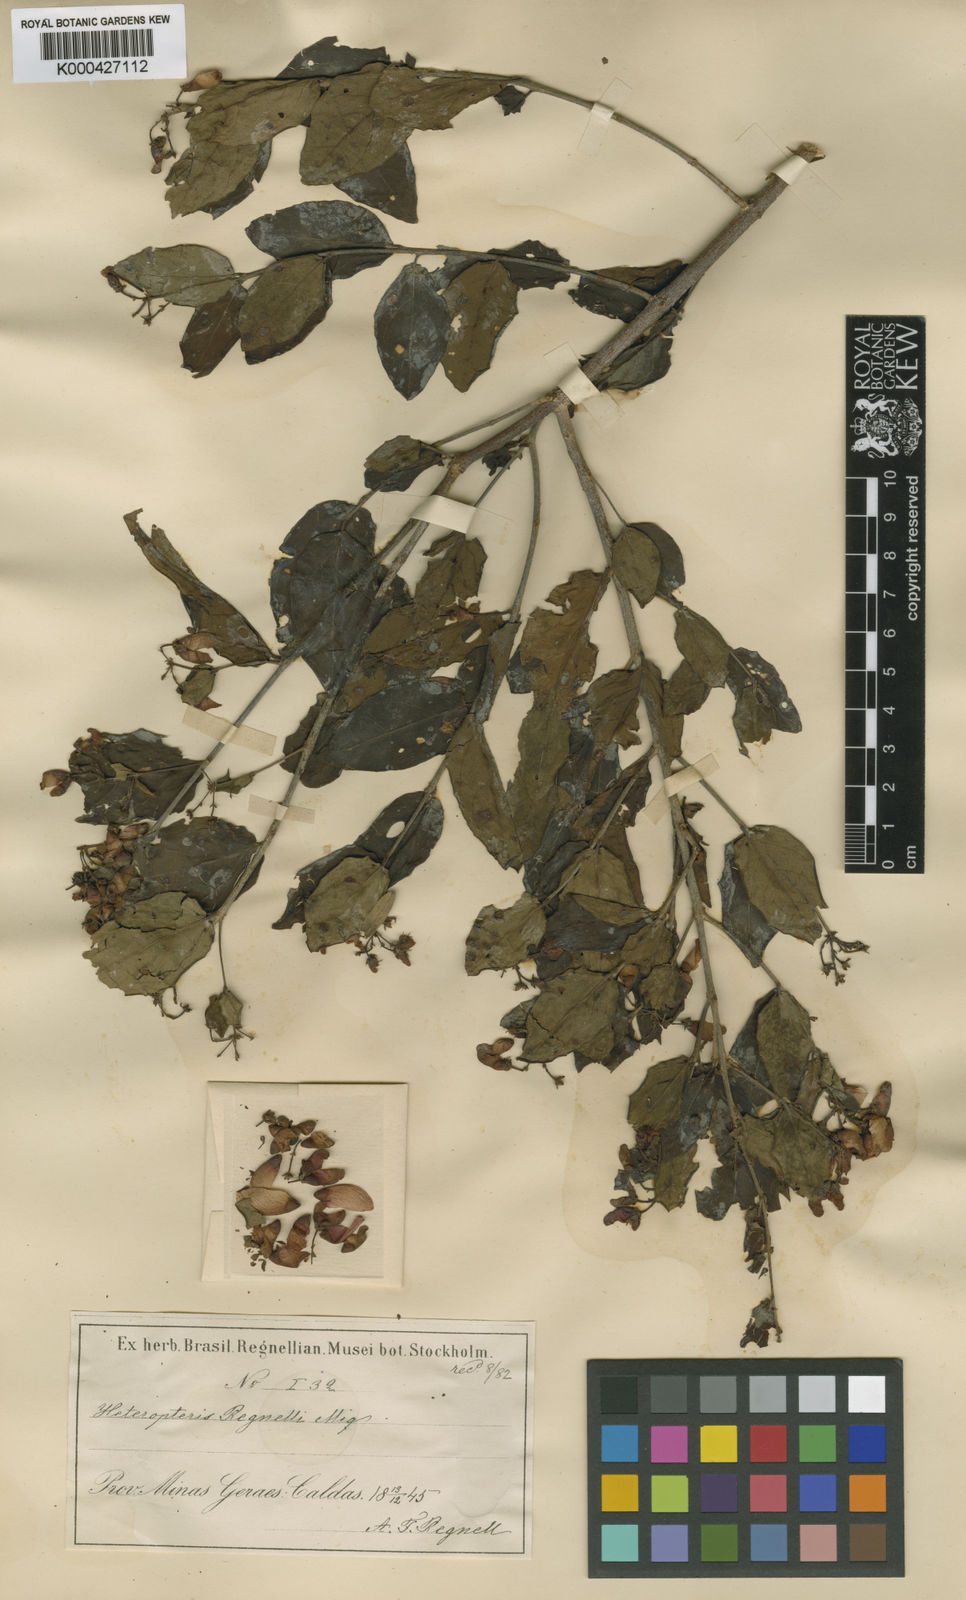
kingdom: Plantae
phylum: Tracheophyta
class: Magnoliopsida
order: Malpighiales
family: Malpighiaceae
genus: Heteropterys
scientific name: Heteropterys umbellata
